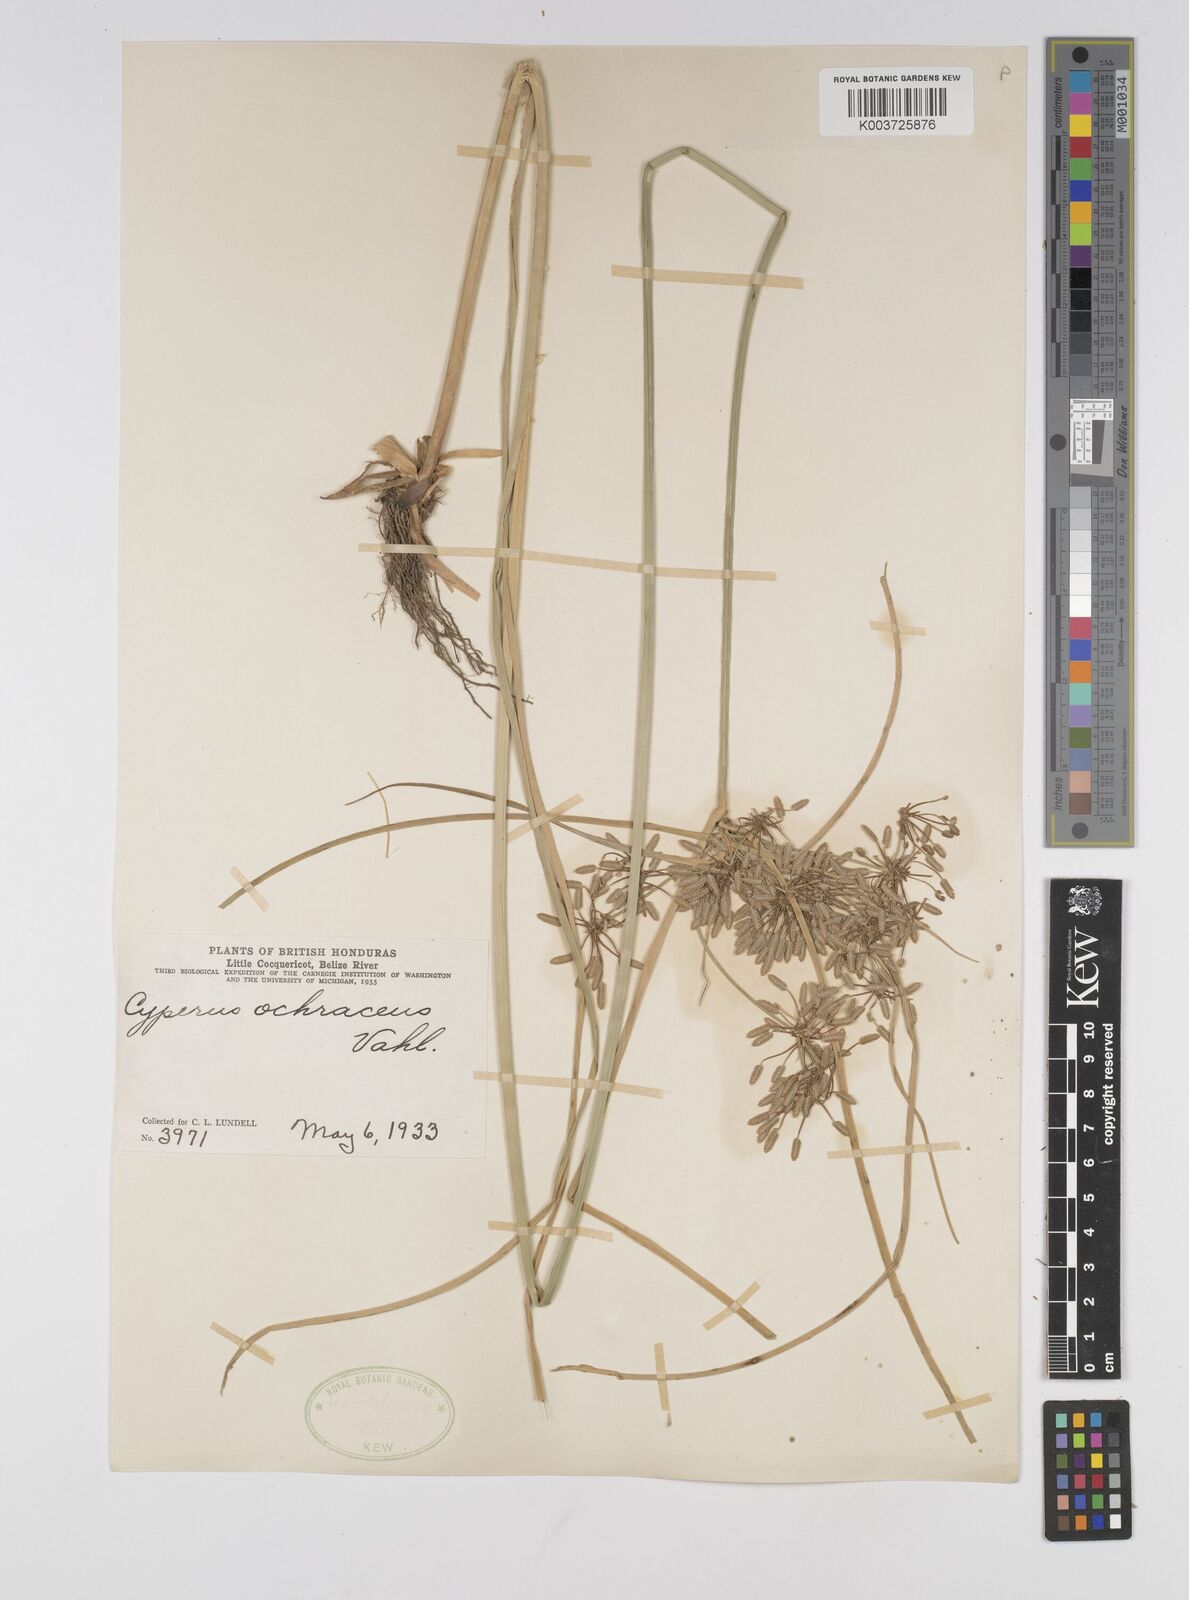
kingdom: Plantae
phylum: Tracheophyta
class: Liliopsida
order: Poales
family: Cyperaceae
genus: Cyperus
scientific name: Cyperus ochraceus
